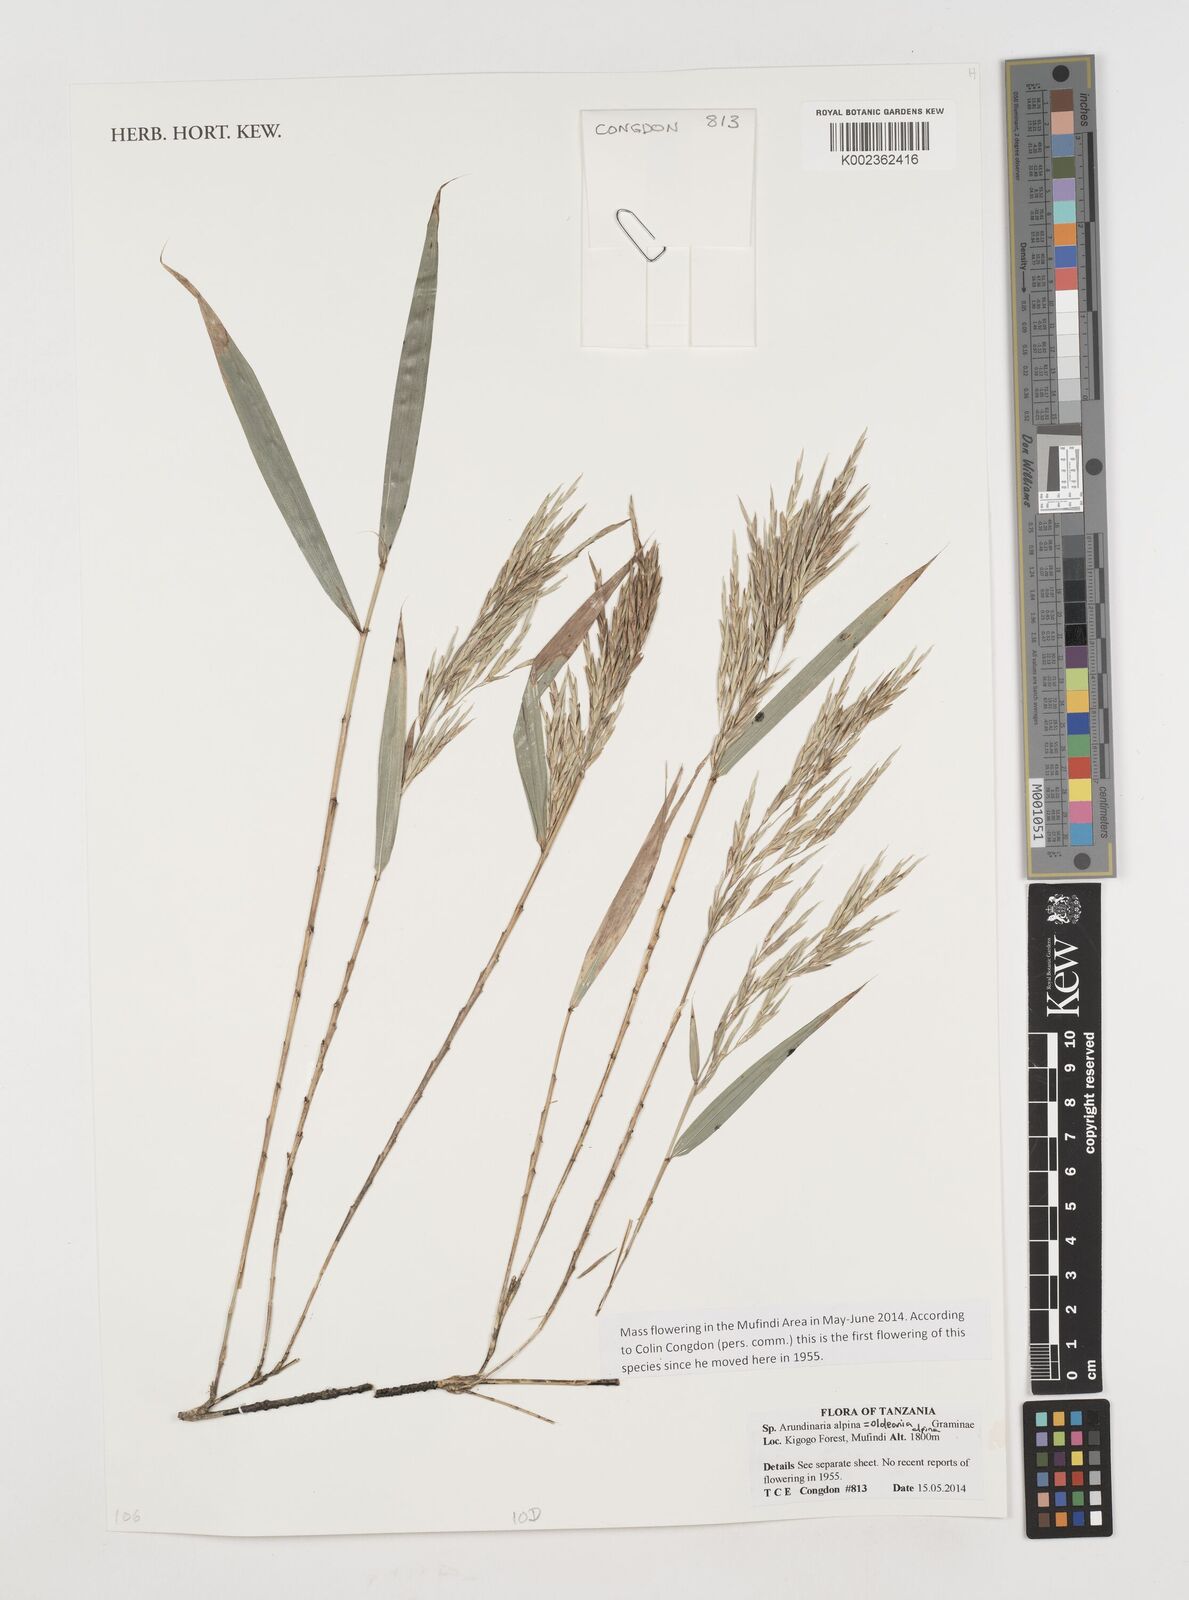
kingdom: Plantae
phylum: Tracheophyta
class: Liliopsida
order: Poales
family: Poaceae
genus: Oldeania
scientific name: Oldeania alpina
